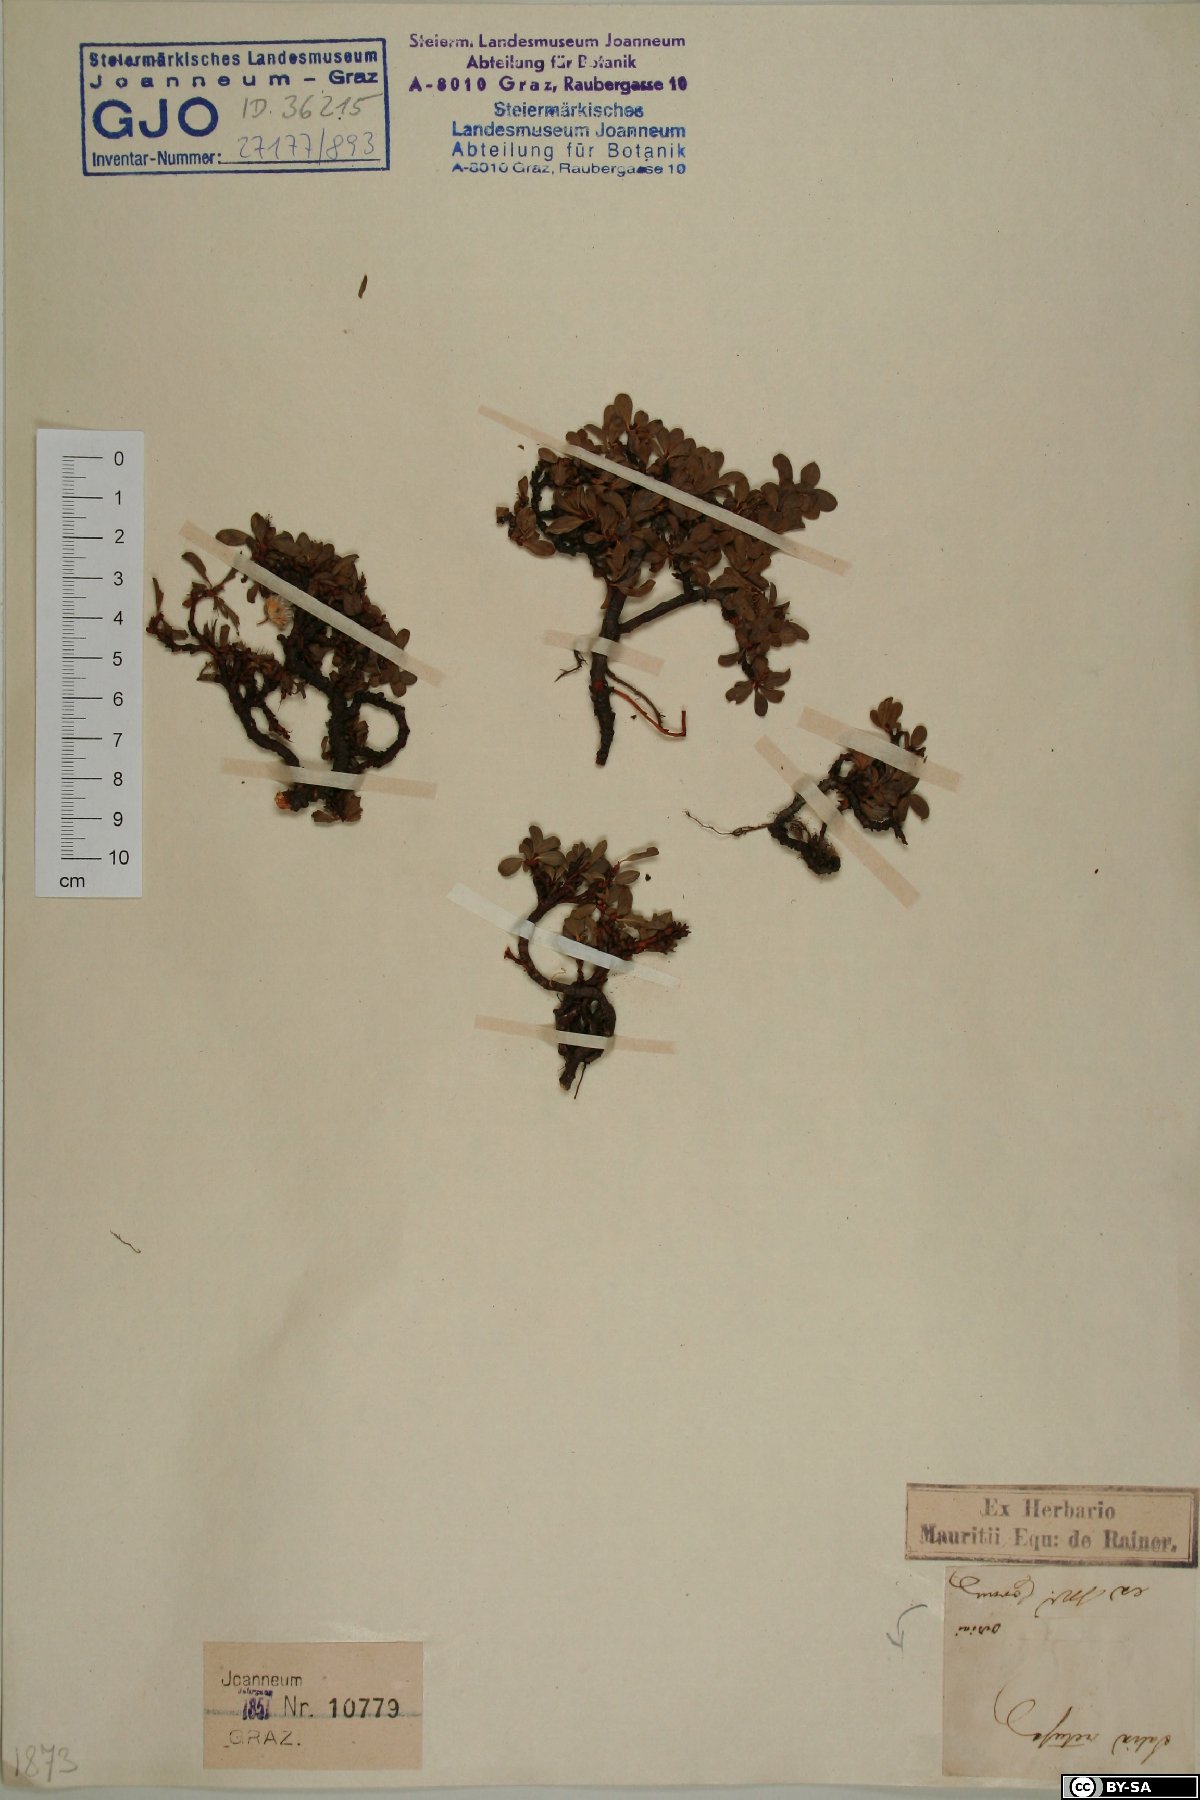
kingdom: Plantae
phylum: Tracheophyta
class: Magnoliopsida
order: Malpighiales
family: Salicaceae
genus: Salix
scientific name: Salix retusa
